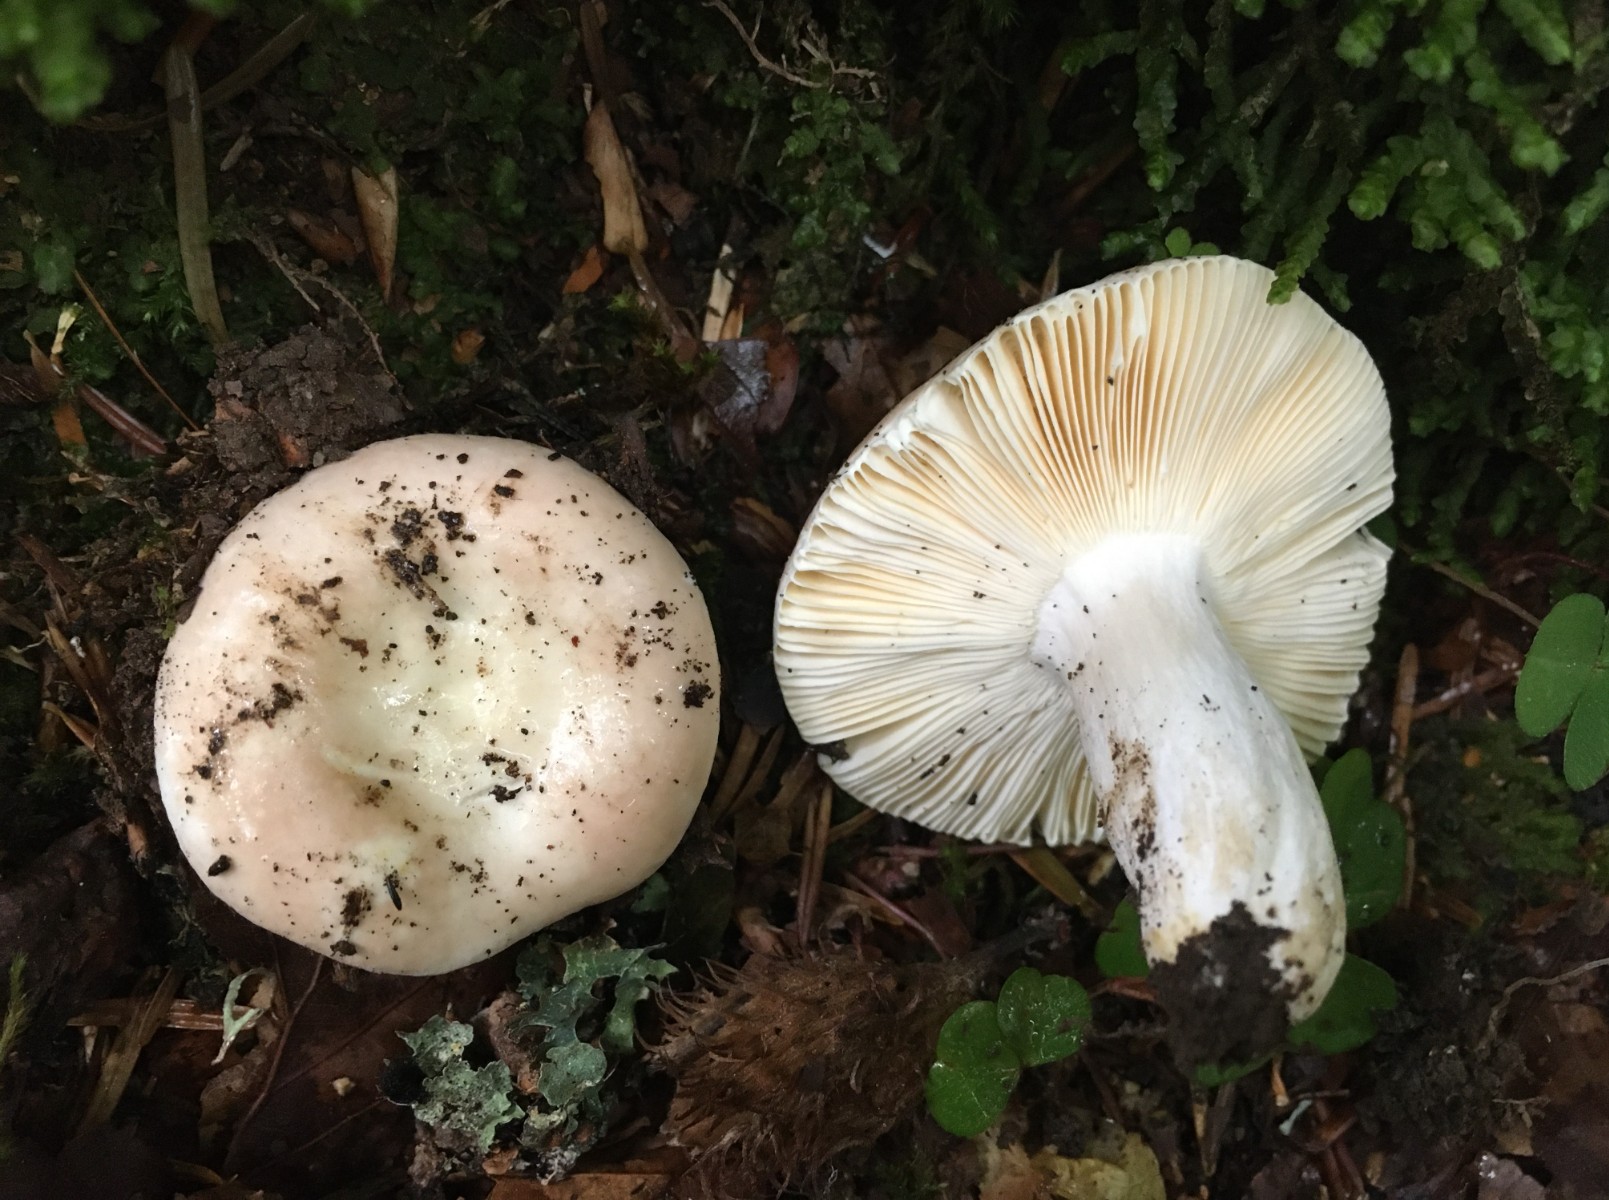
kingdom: Fungi
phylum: Basidiomycota
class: Agaricomycetes
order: Russulales
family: Russulaceae
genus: Russula
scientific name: Russula veternosa
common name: blødkødet skørhat
